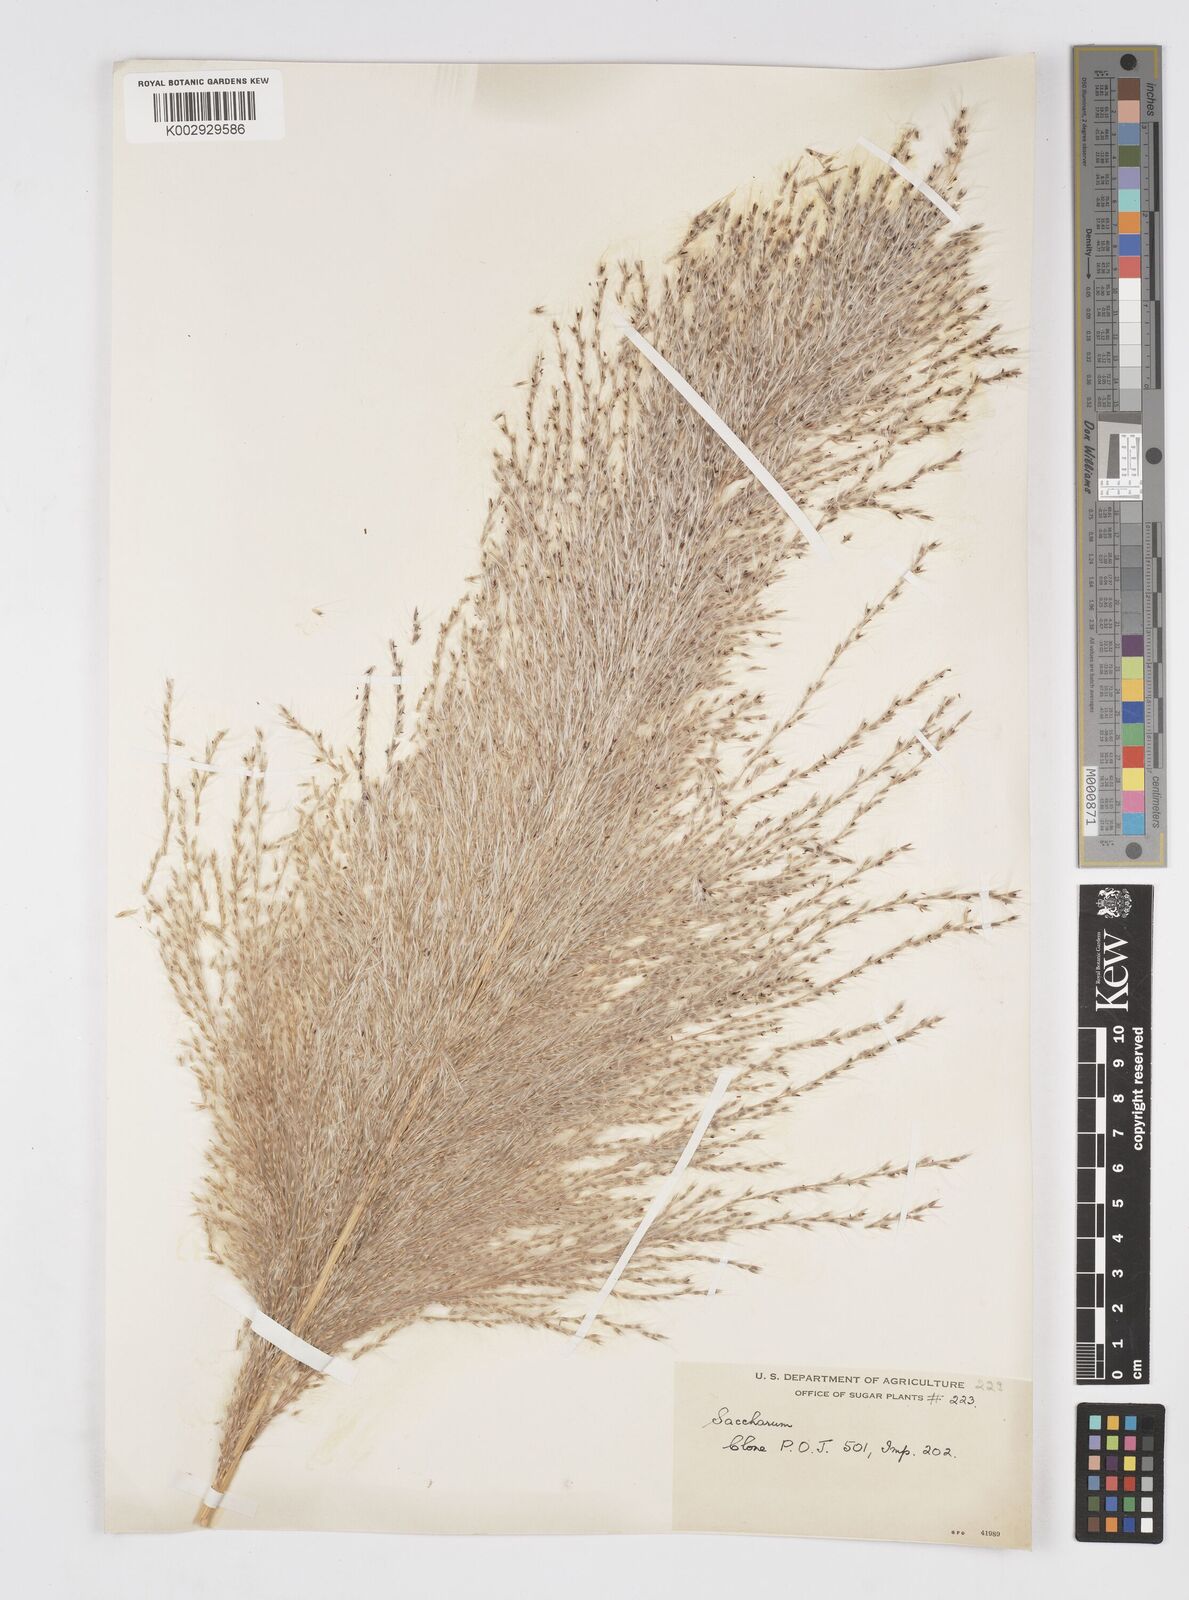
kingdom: Plantae
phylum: Tracheophyta
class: Liliopsida
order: Poales
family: Poaceae
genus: Saccharum
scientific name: Saccharum officinarum
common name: Sugarcane
